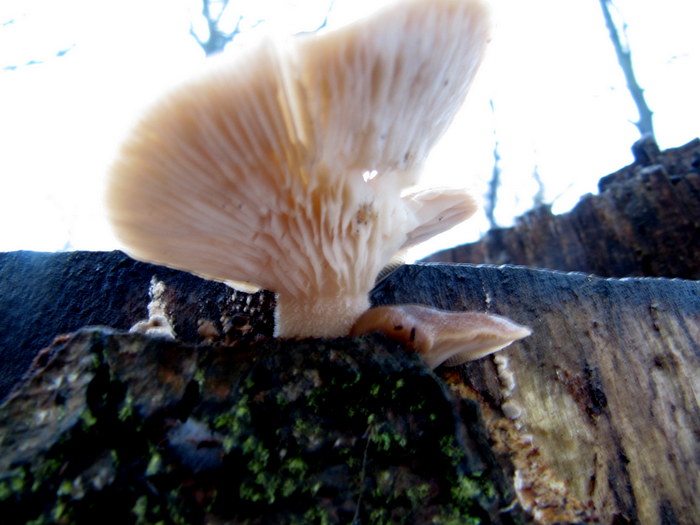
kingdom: Fungi
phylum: Basidiomycota
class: Agaricomycetes
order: Agaricales
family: Pleurotaceae
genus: Pleurotus
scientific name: Pleurotus ostreatus
